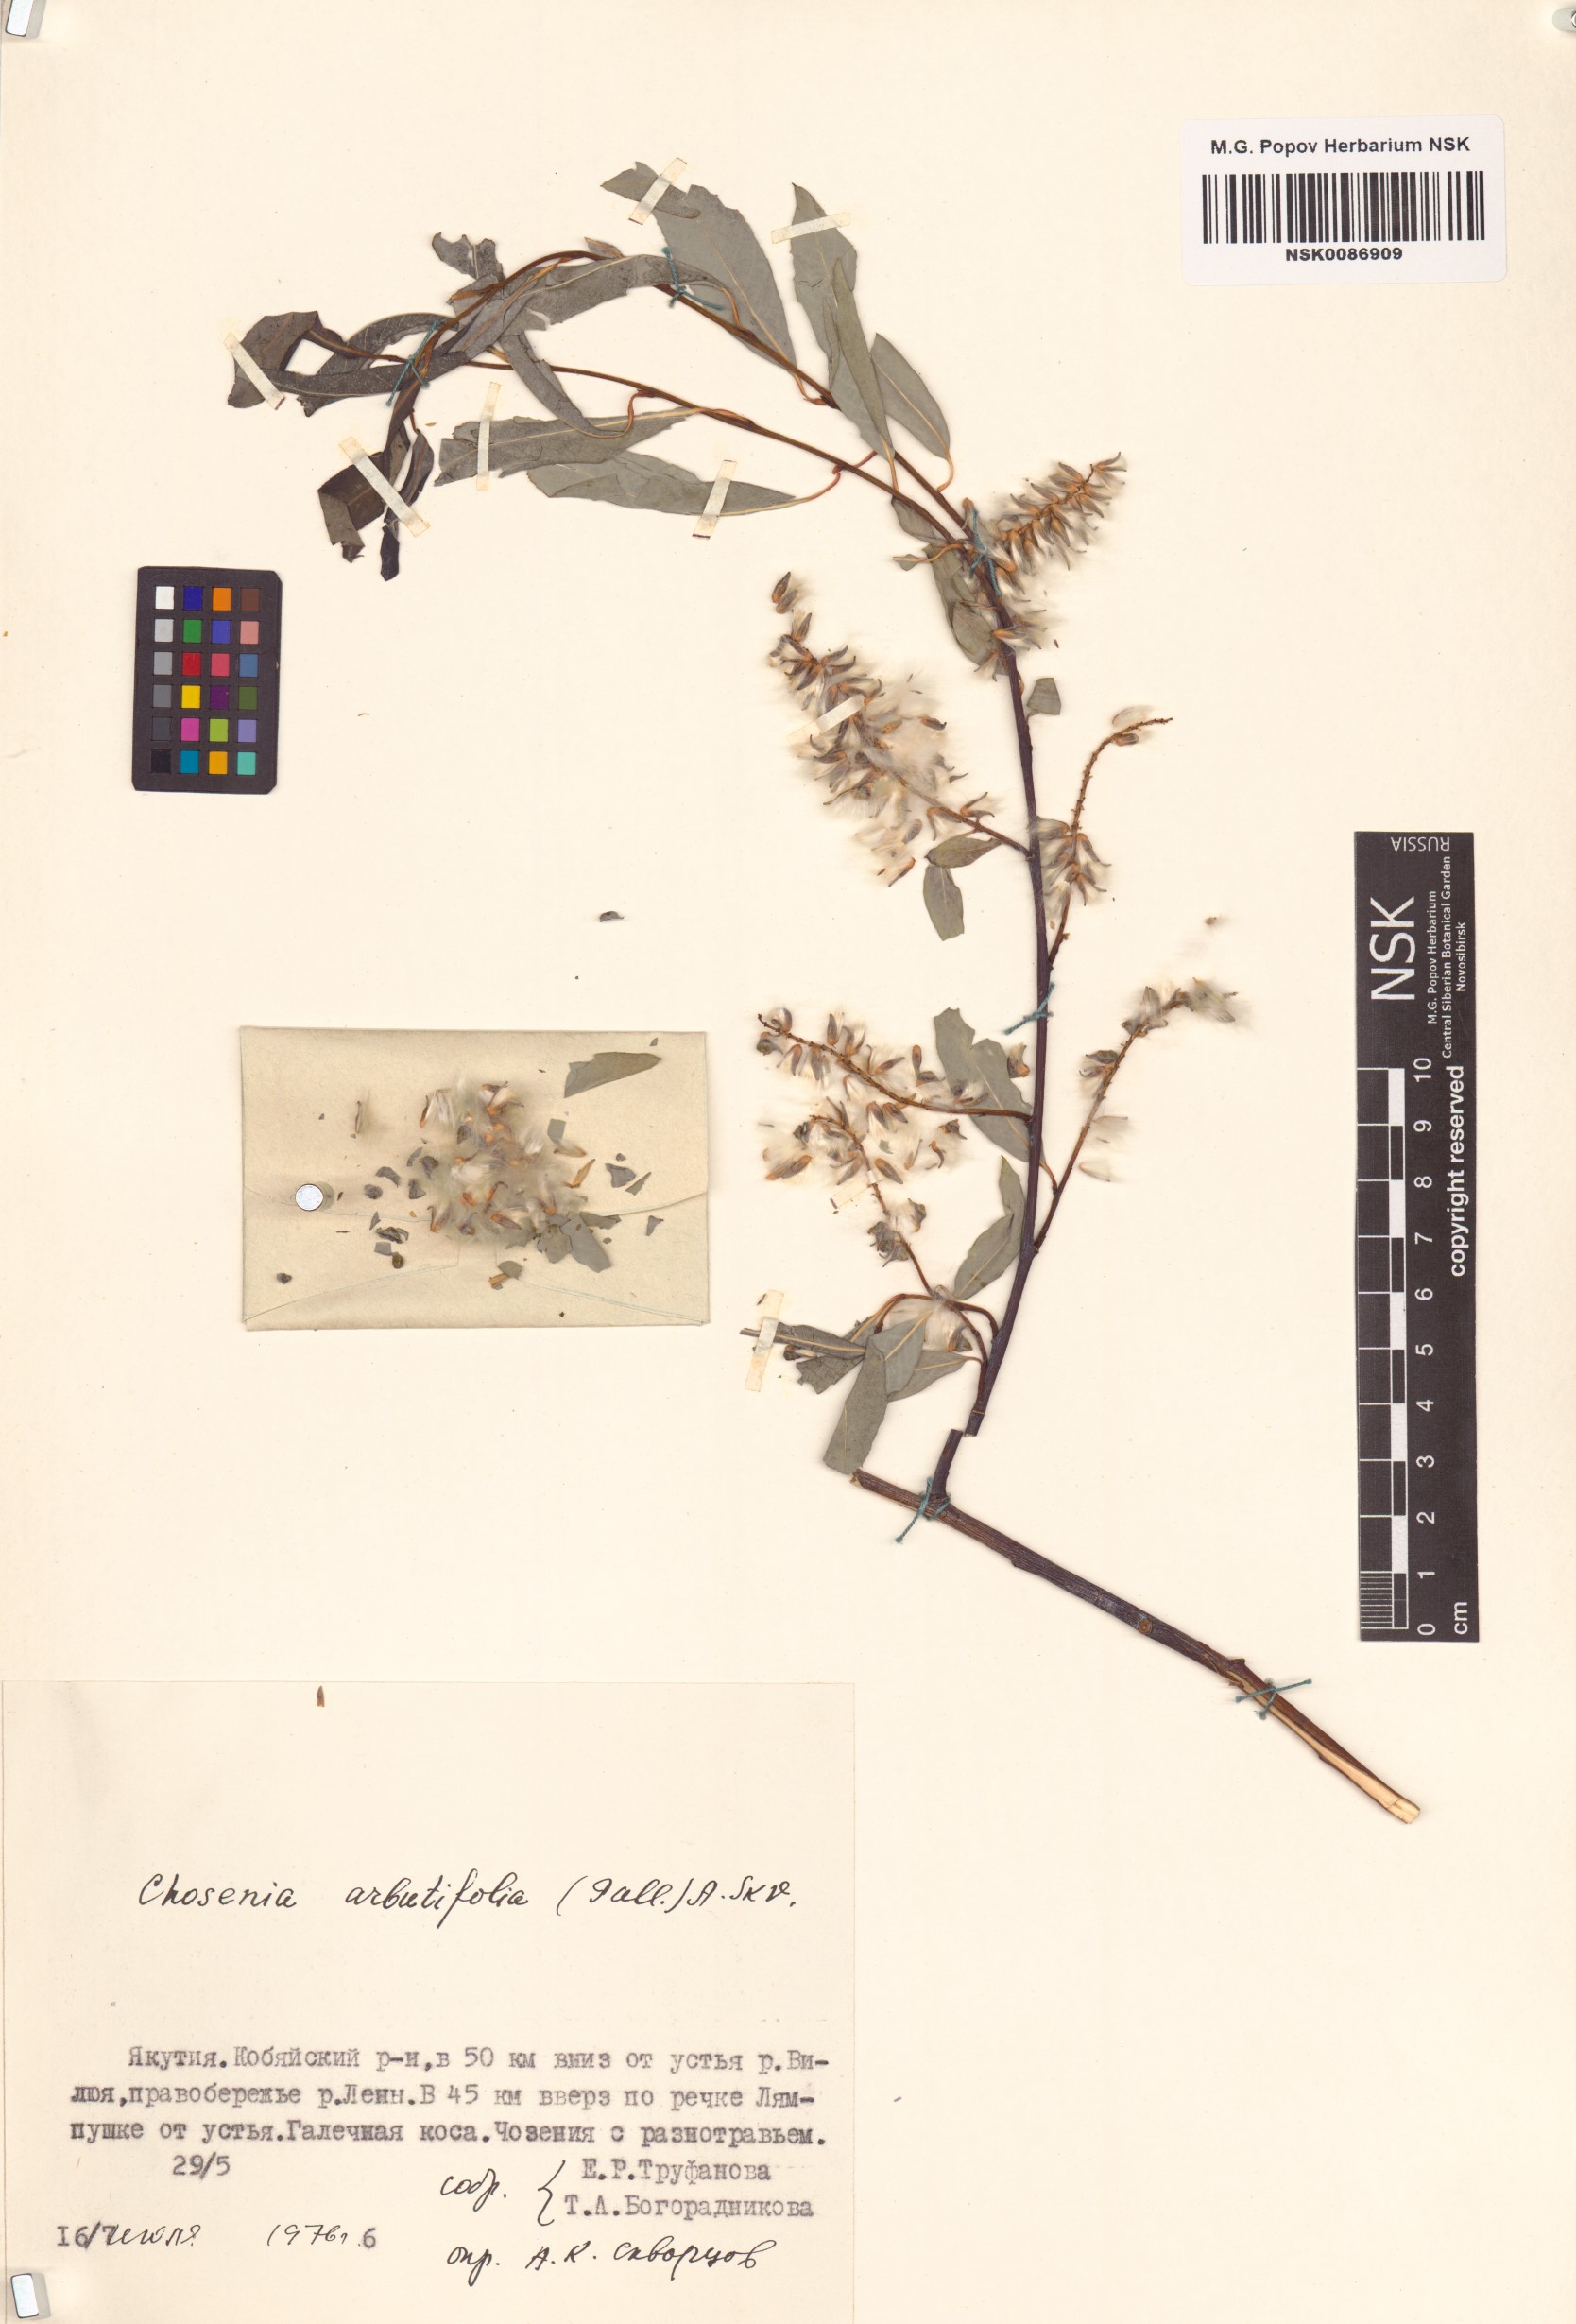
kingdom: Plantae
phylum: Tracheophyta
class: Magnoliopsida
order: Malpighiales
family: Salicaceae
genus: Chosenia
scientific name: Chosenia arbutifolia
